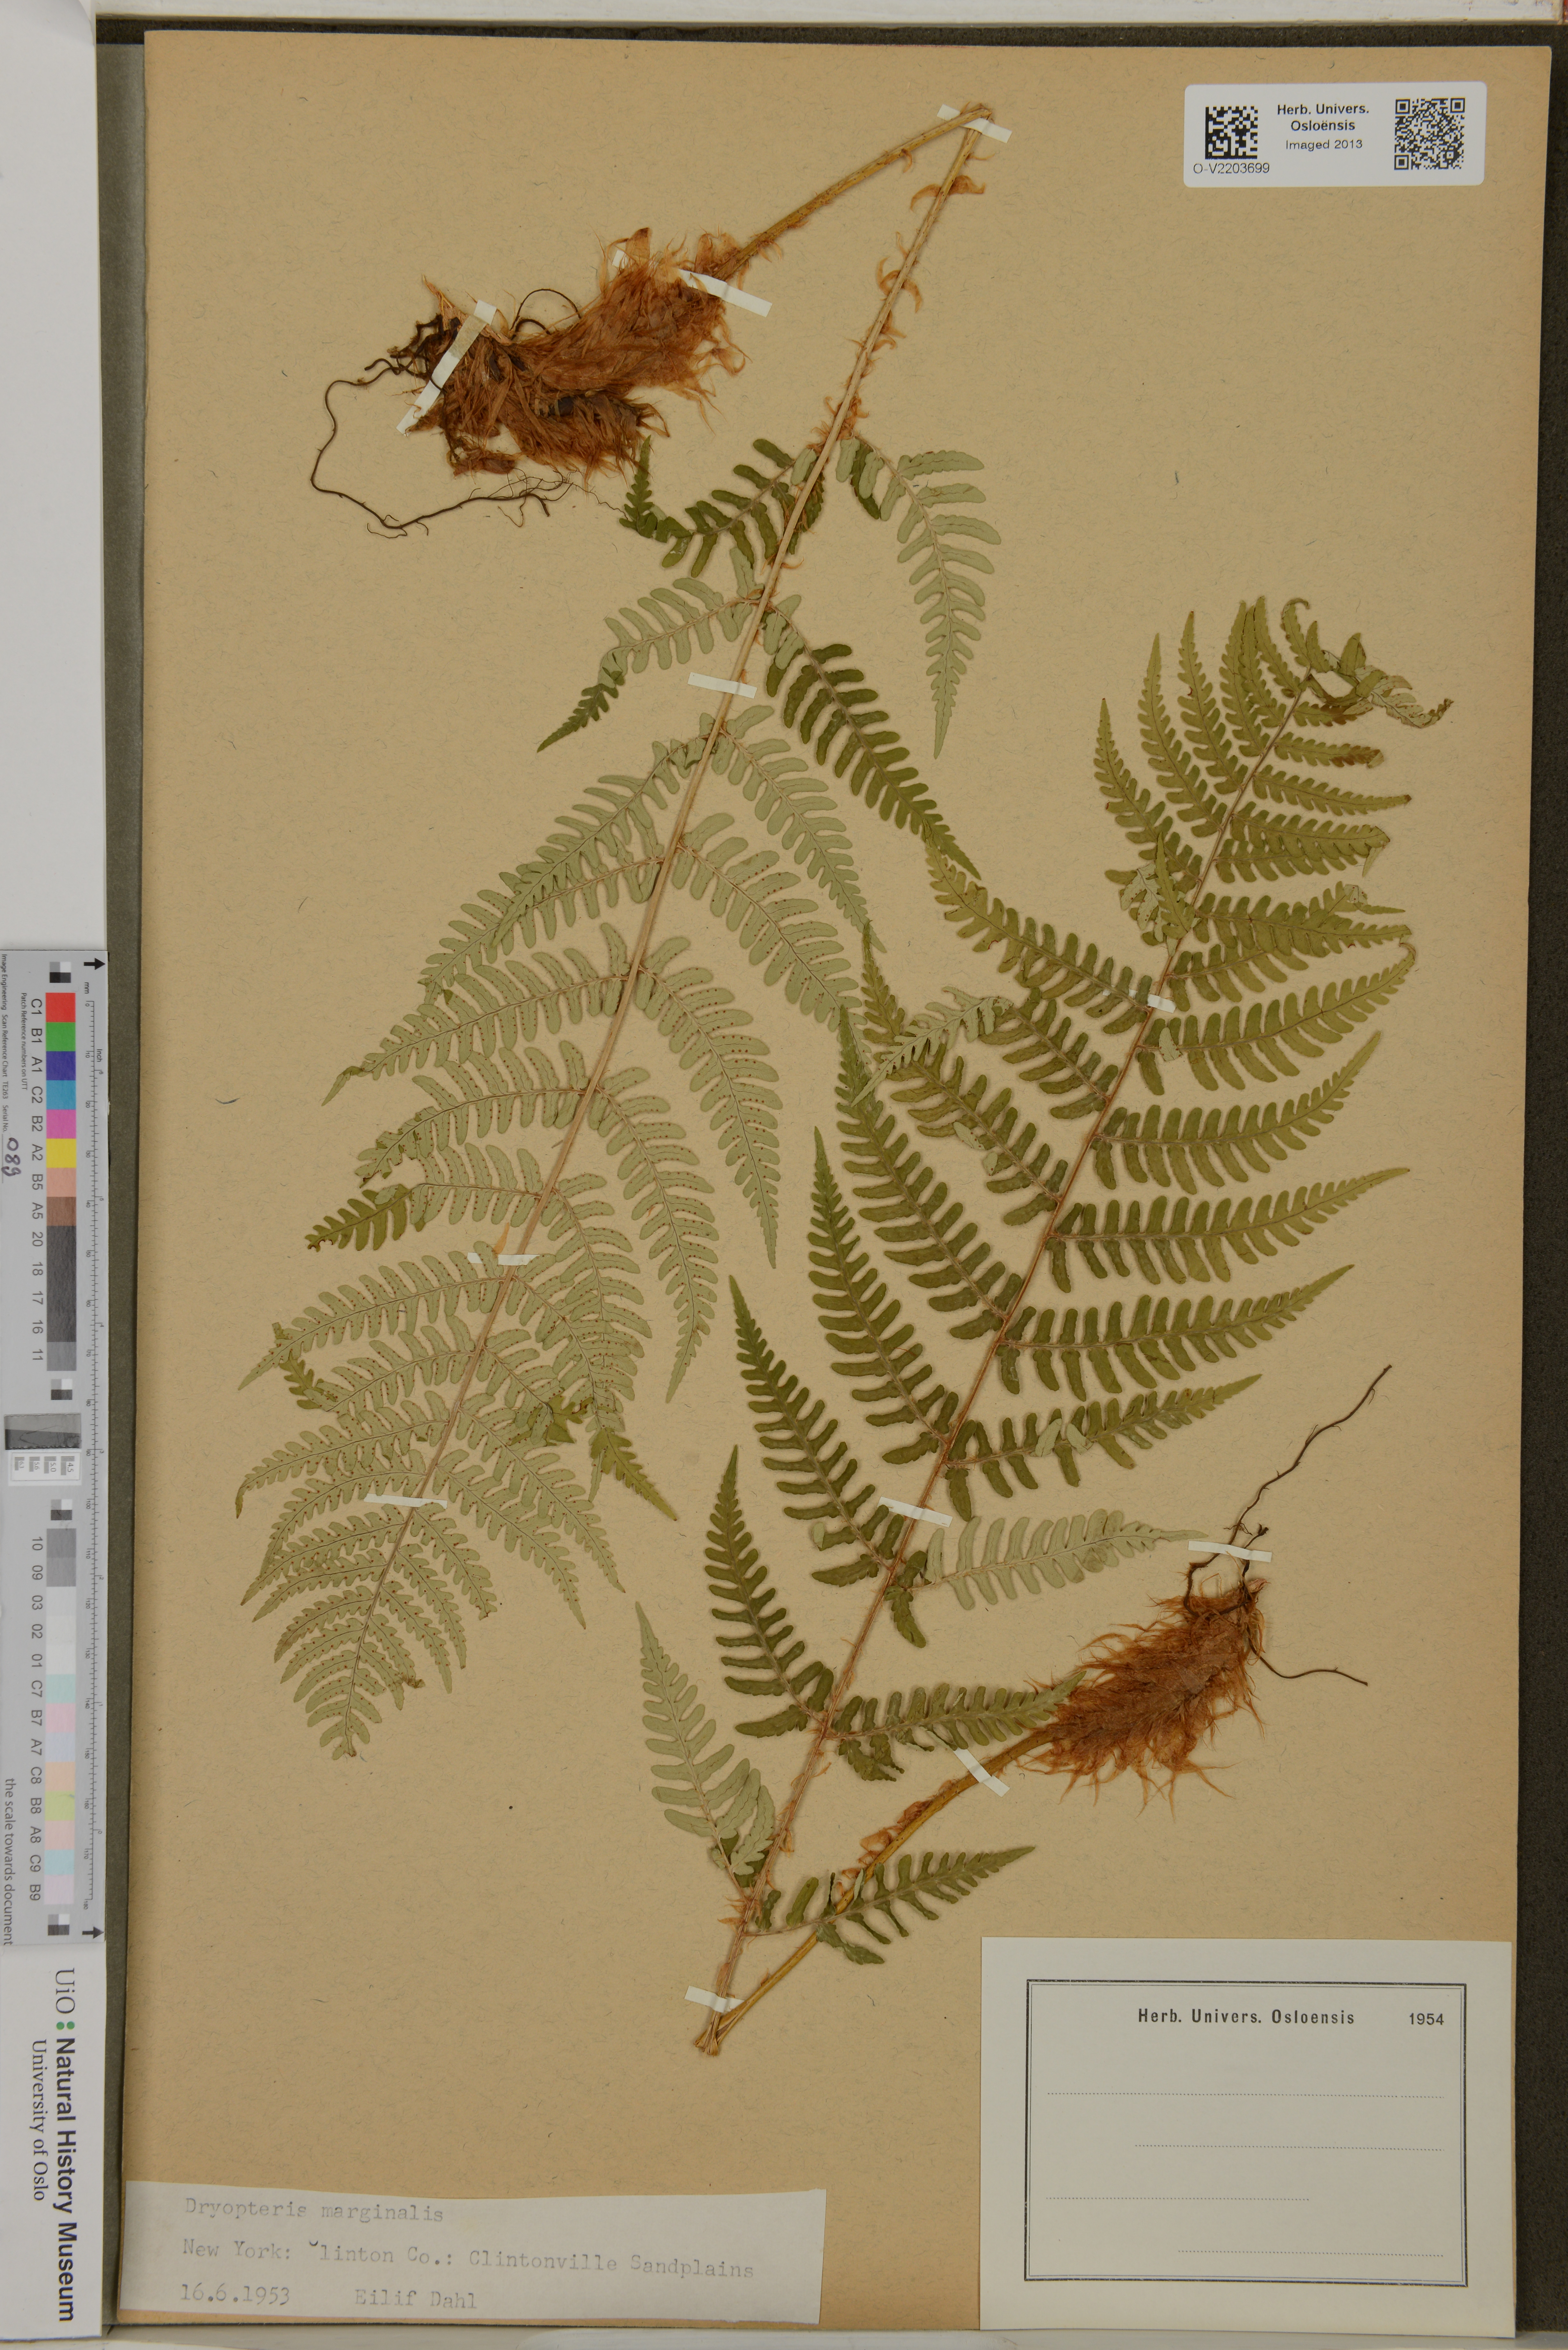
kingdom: Plantae
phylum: Tracheophyta
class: Polypodiopsida
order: Polypodiales
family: Dryopteridaceae
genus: Dryopteris
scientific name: Dryopteris marginalis
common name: Marginal wood fern
